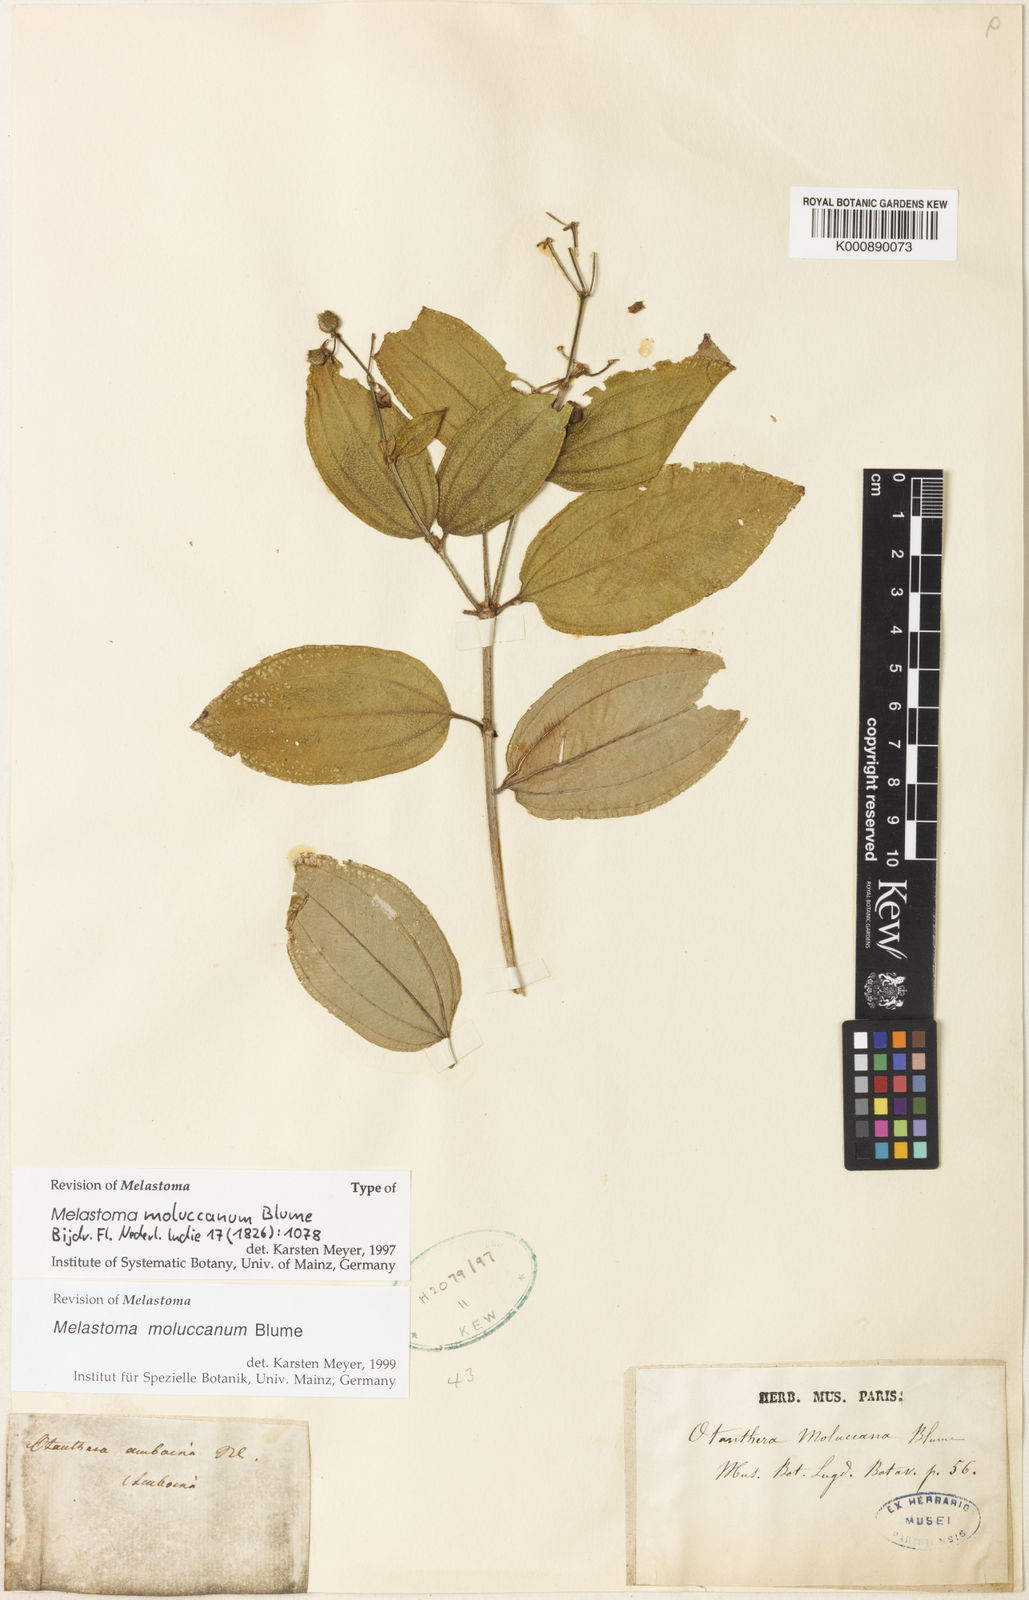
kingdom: Plantae
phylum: Tracheophyta
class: Magnoliopsida
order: Myrtales
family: Melastomataceae
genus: Melastoma
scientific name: Melastoma cyanoides
